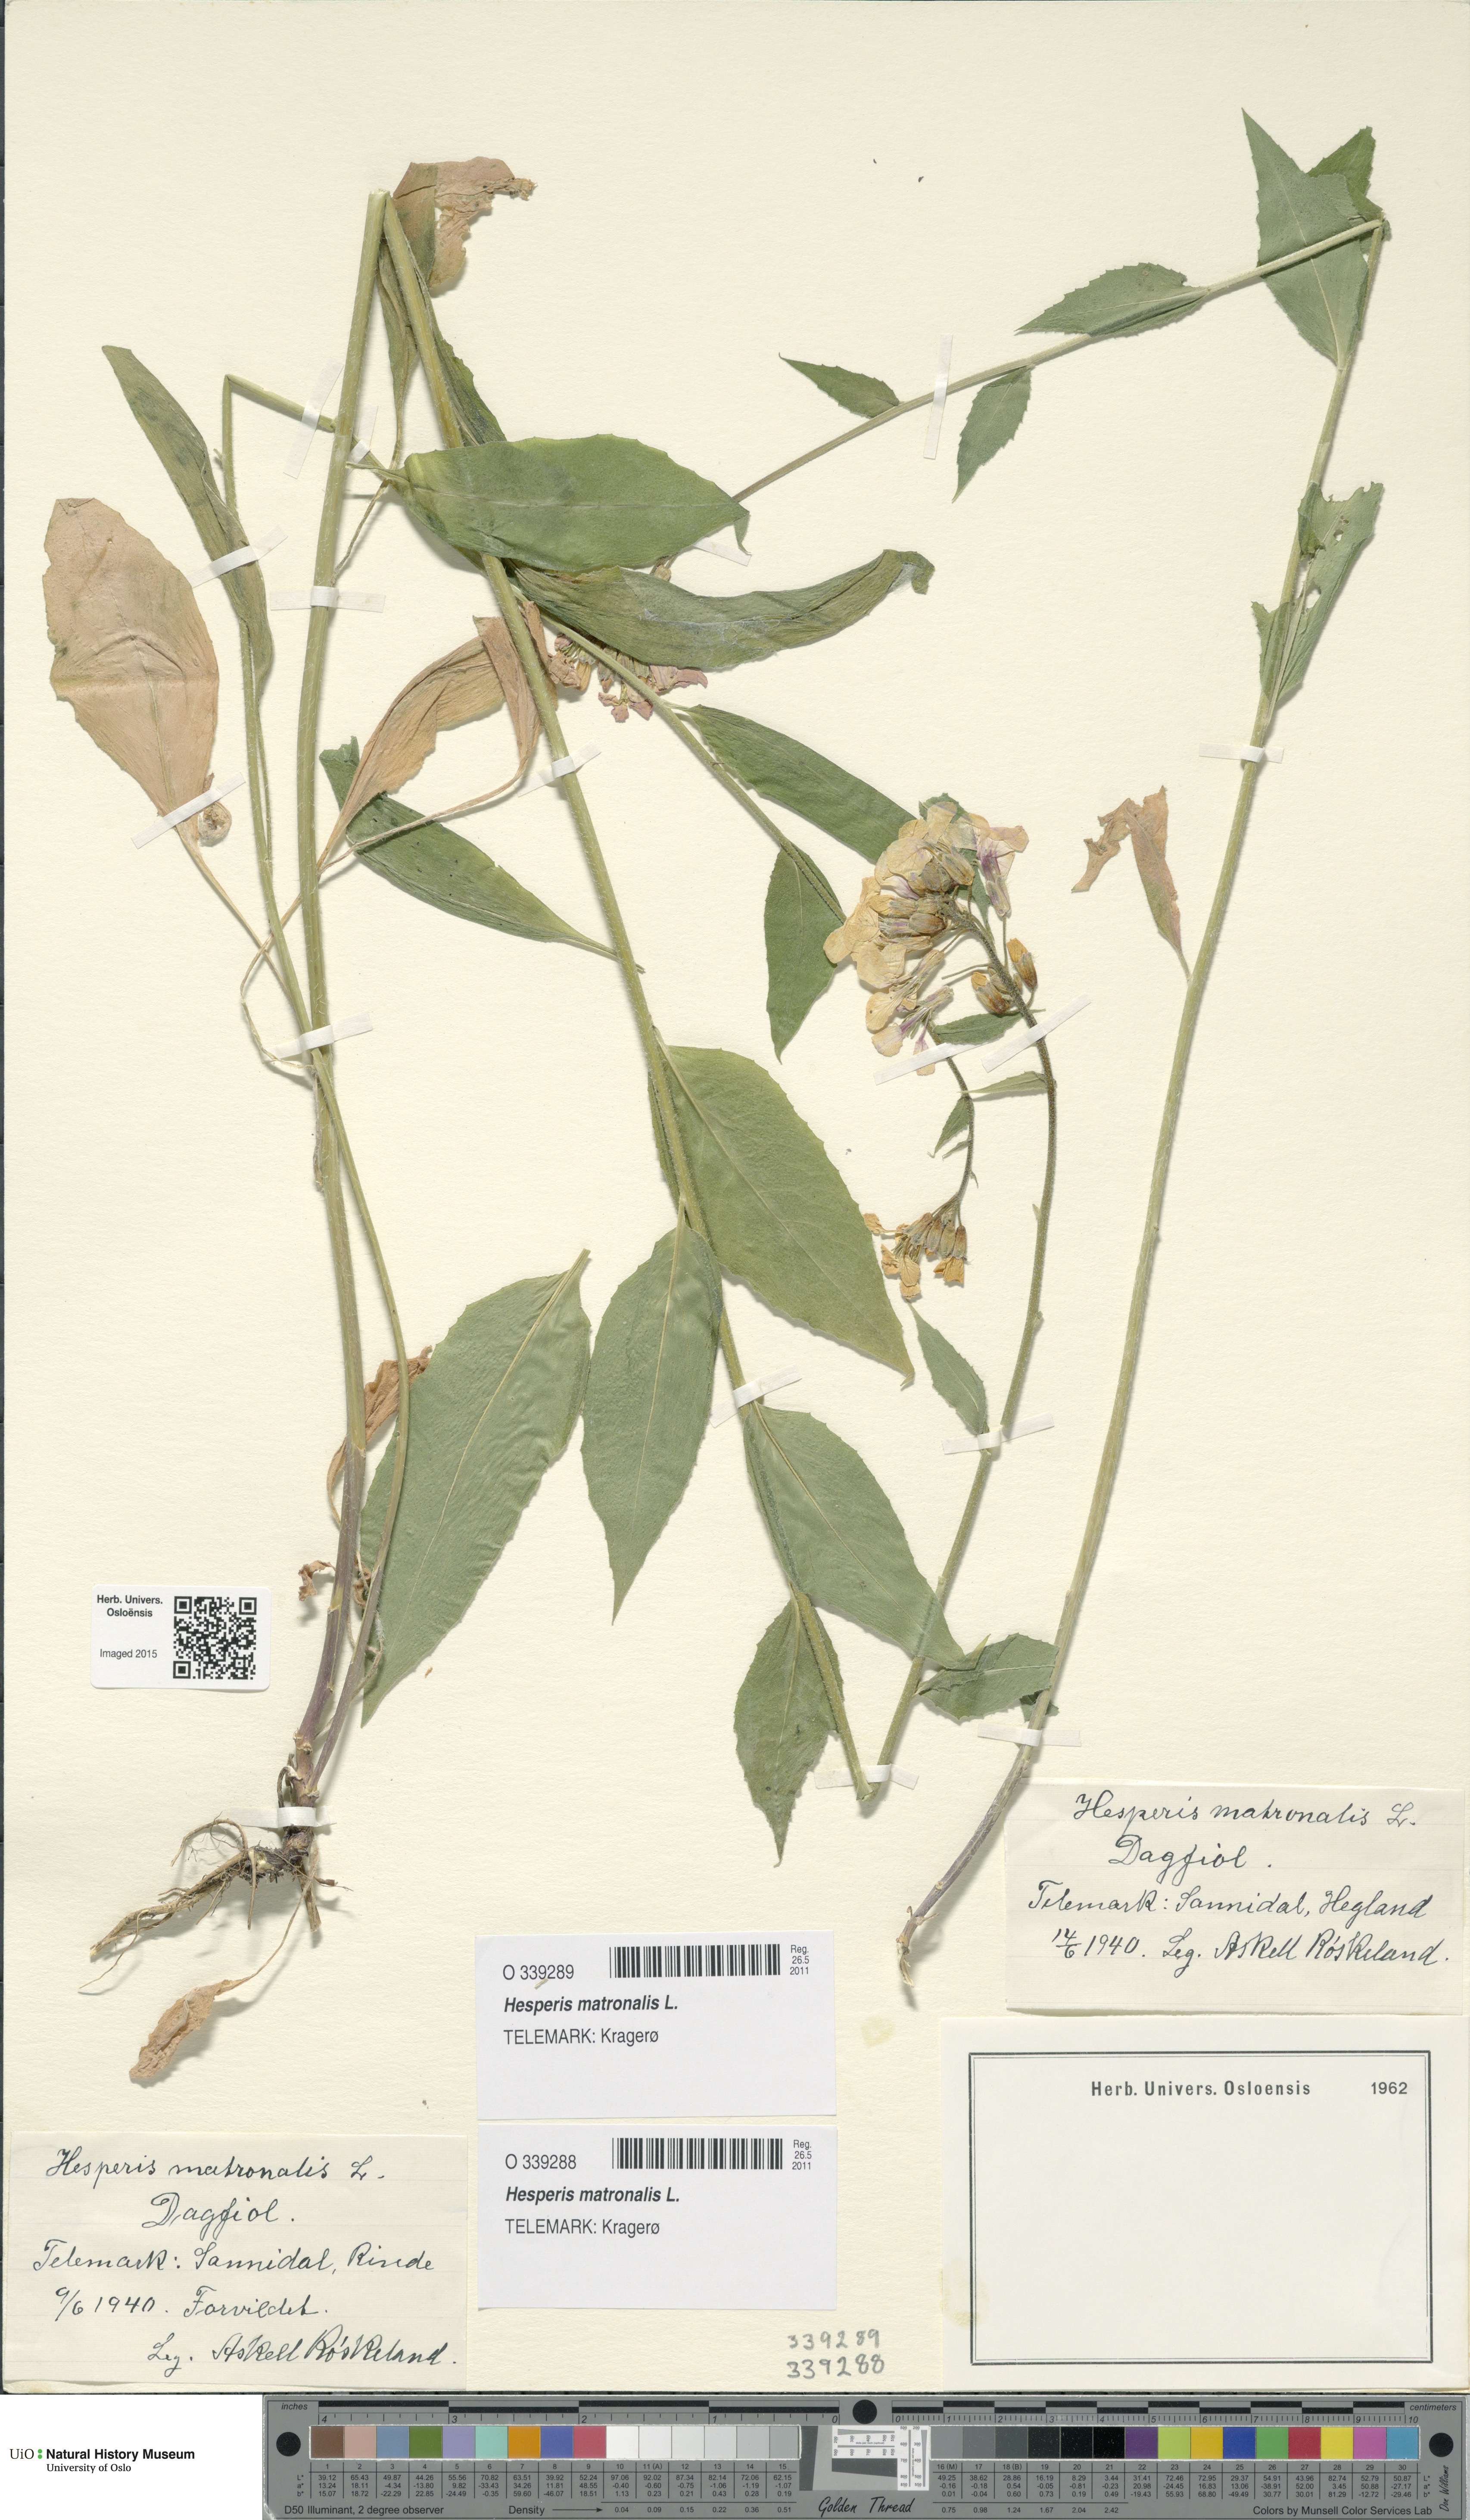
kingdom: Plantae
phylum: Tracheophyta
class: Magnoliopsida
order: Brassicales
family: Brassicaceae
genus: Hesperis
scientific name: Hesperis matronalis
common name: Dame's-violet
